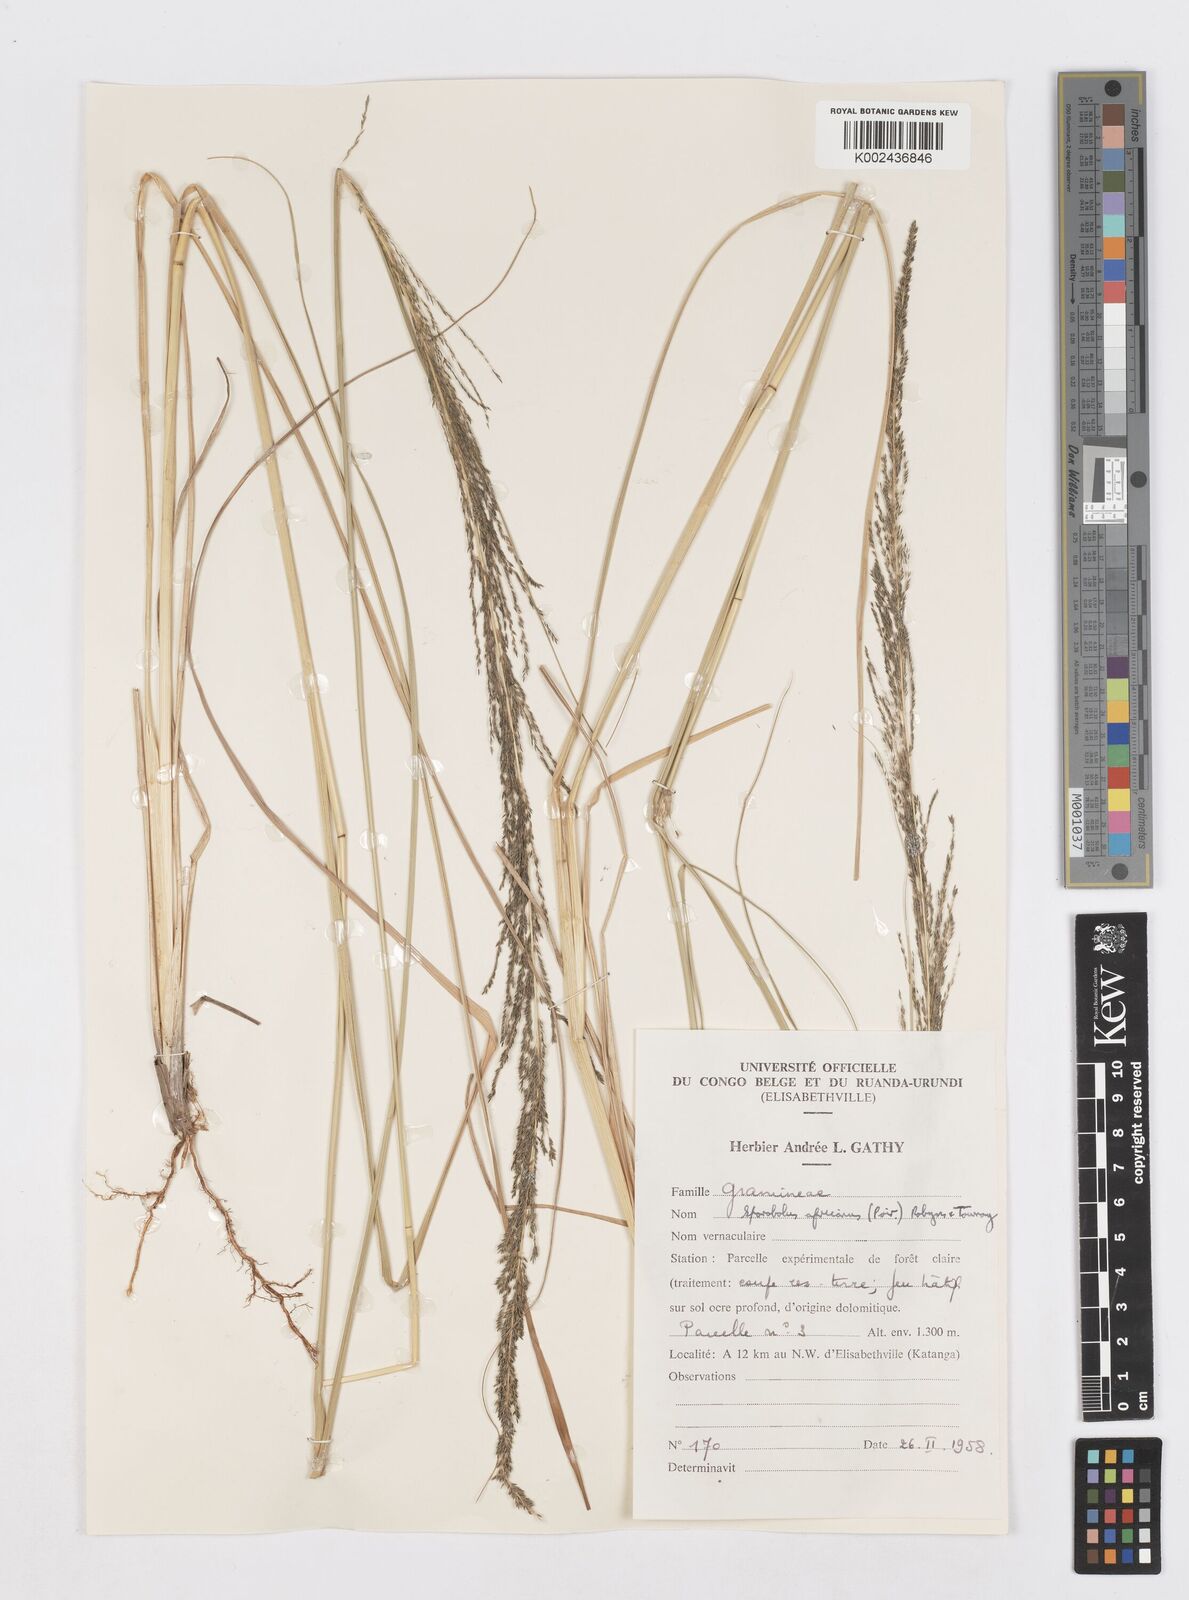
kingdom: Plantae
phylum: Tracheophyta
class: Liliopsida
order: Poales
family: Poaceae
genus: Sporobolus
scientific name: Sporobolus natalensis
